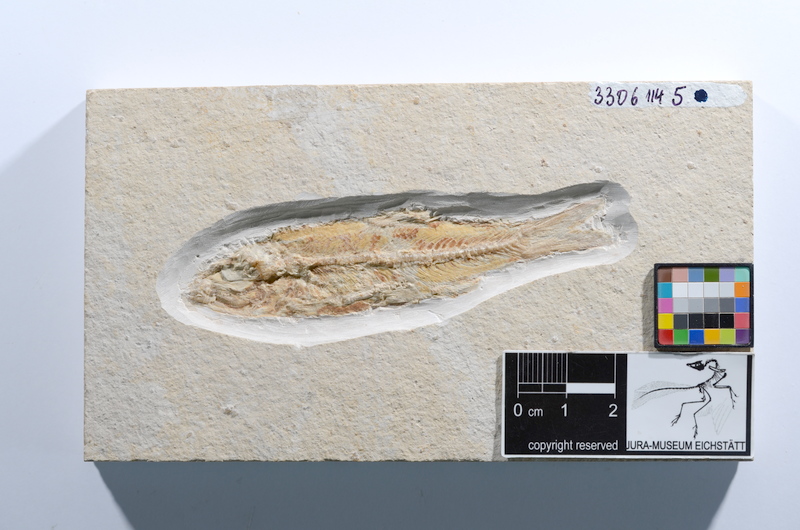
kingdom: Animalia
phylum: Chordata
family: Ascalaboidae
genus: Ascalabos
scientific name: Ascalabos voithii
